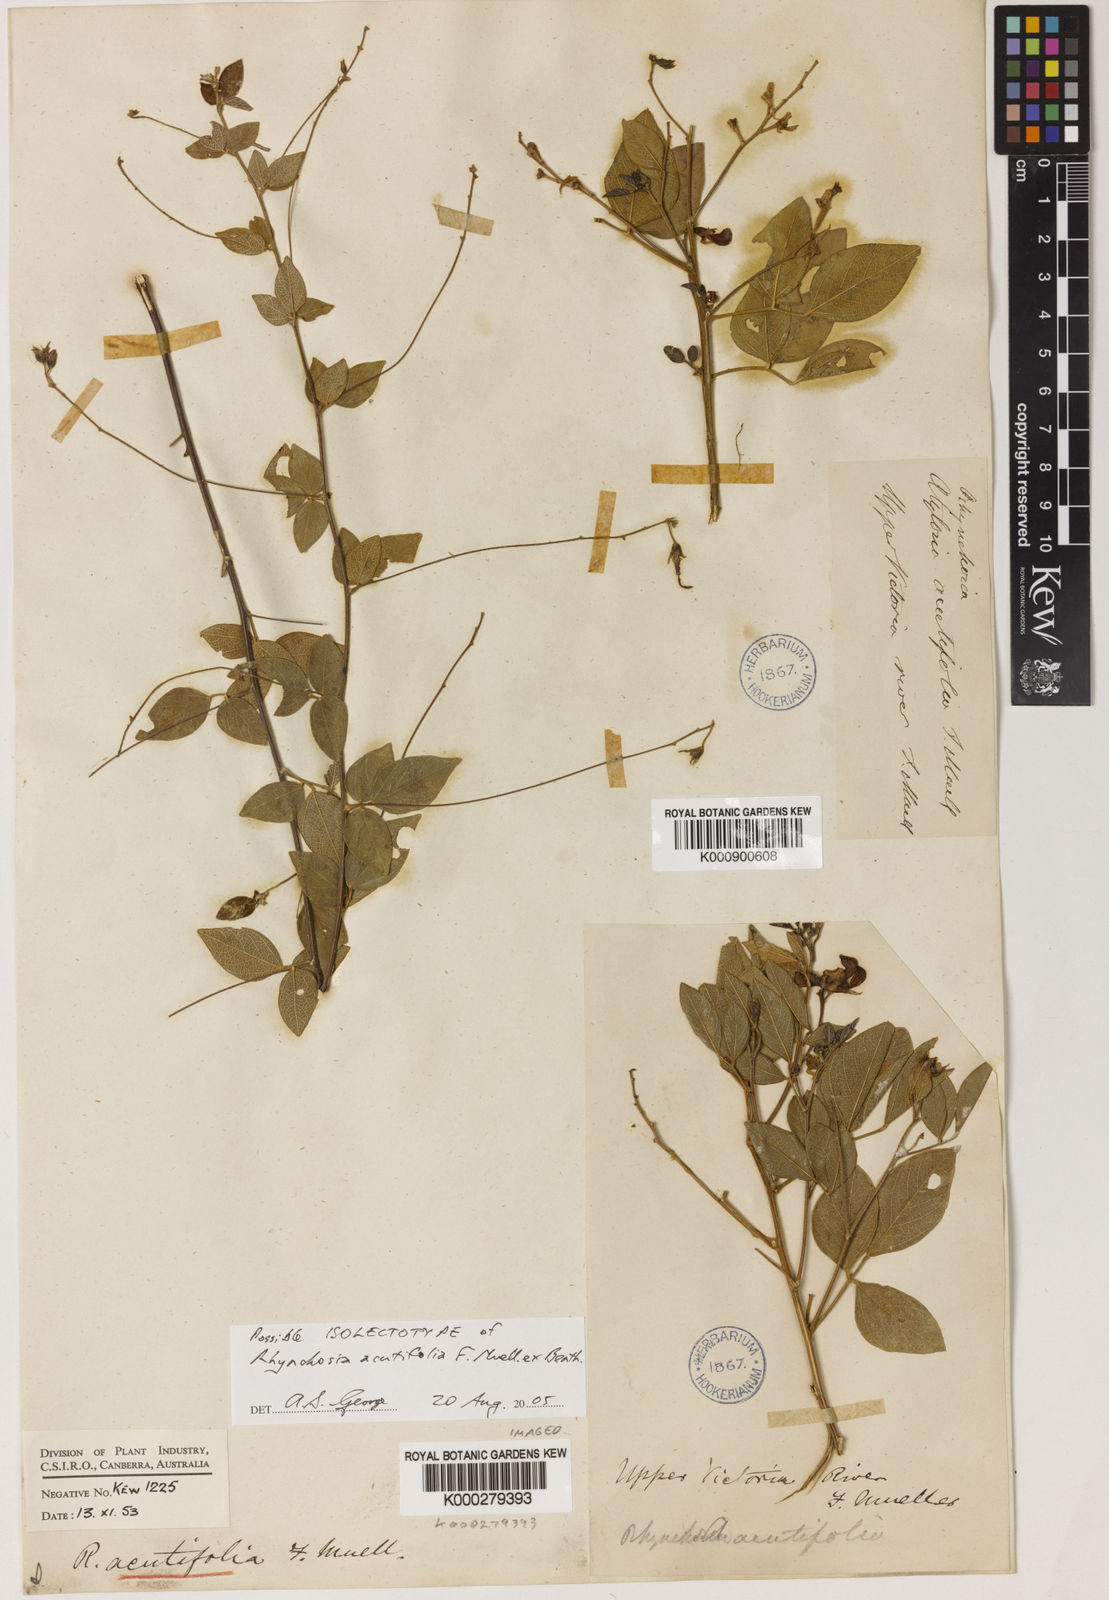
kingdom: Plantae
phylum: Tracheophyta
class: Magnoliopsida
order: Fabales
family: Fabaceae
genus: Cajanus
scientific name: Cajanus acutifolius
